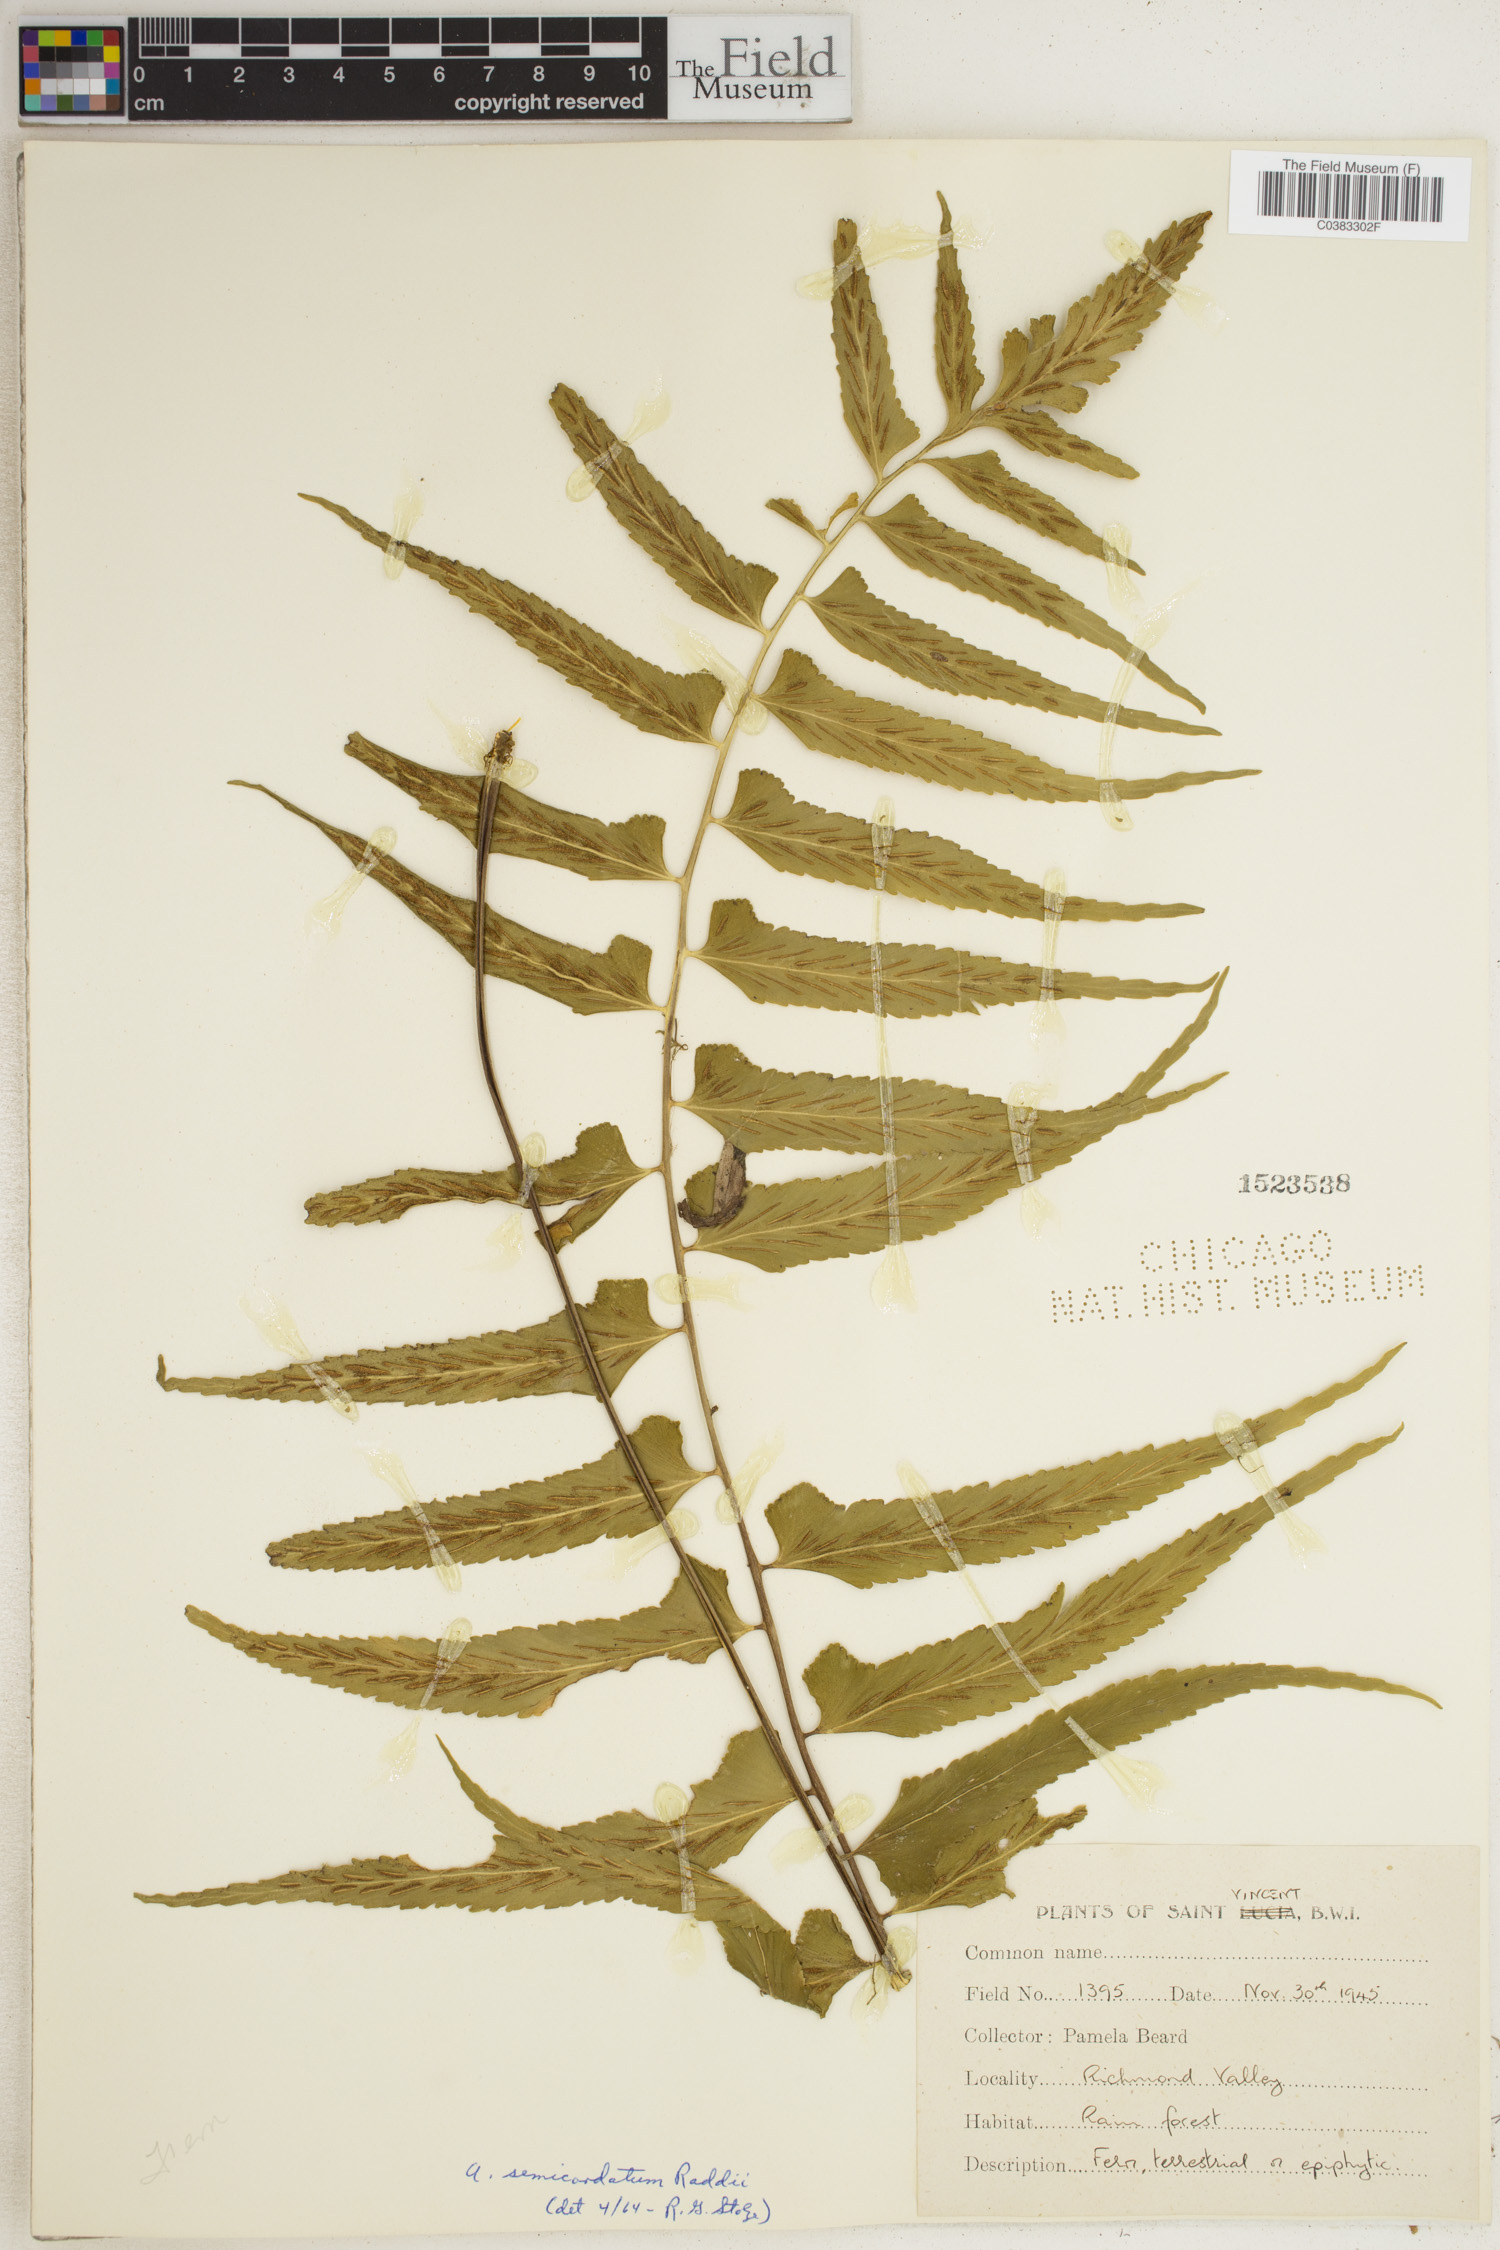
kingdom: Plantae
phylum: Tracheophyta
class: Polypodiopsida
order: Polypodiales
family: Aspleniaceae
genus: Asplenium
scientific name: Asplenium auriculatum
